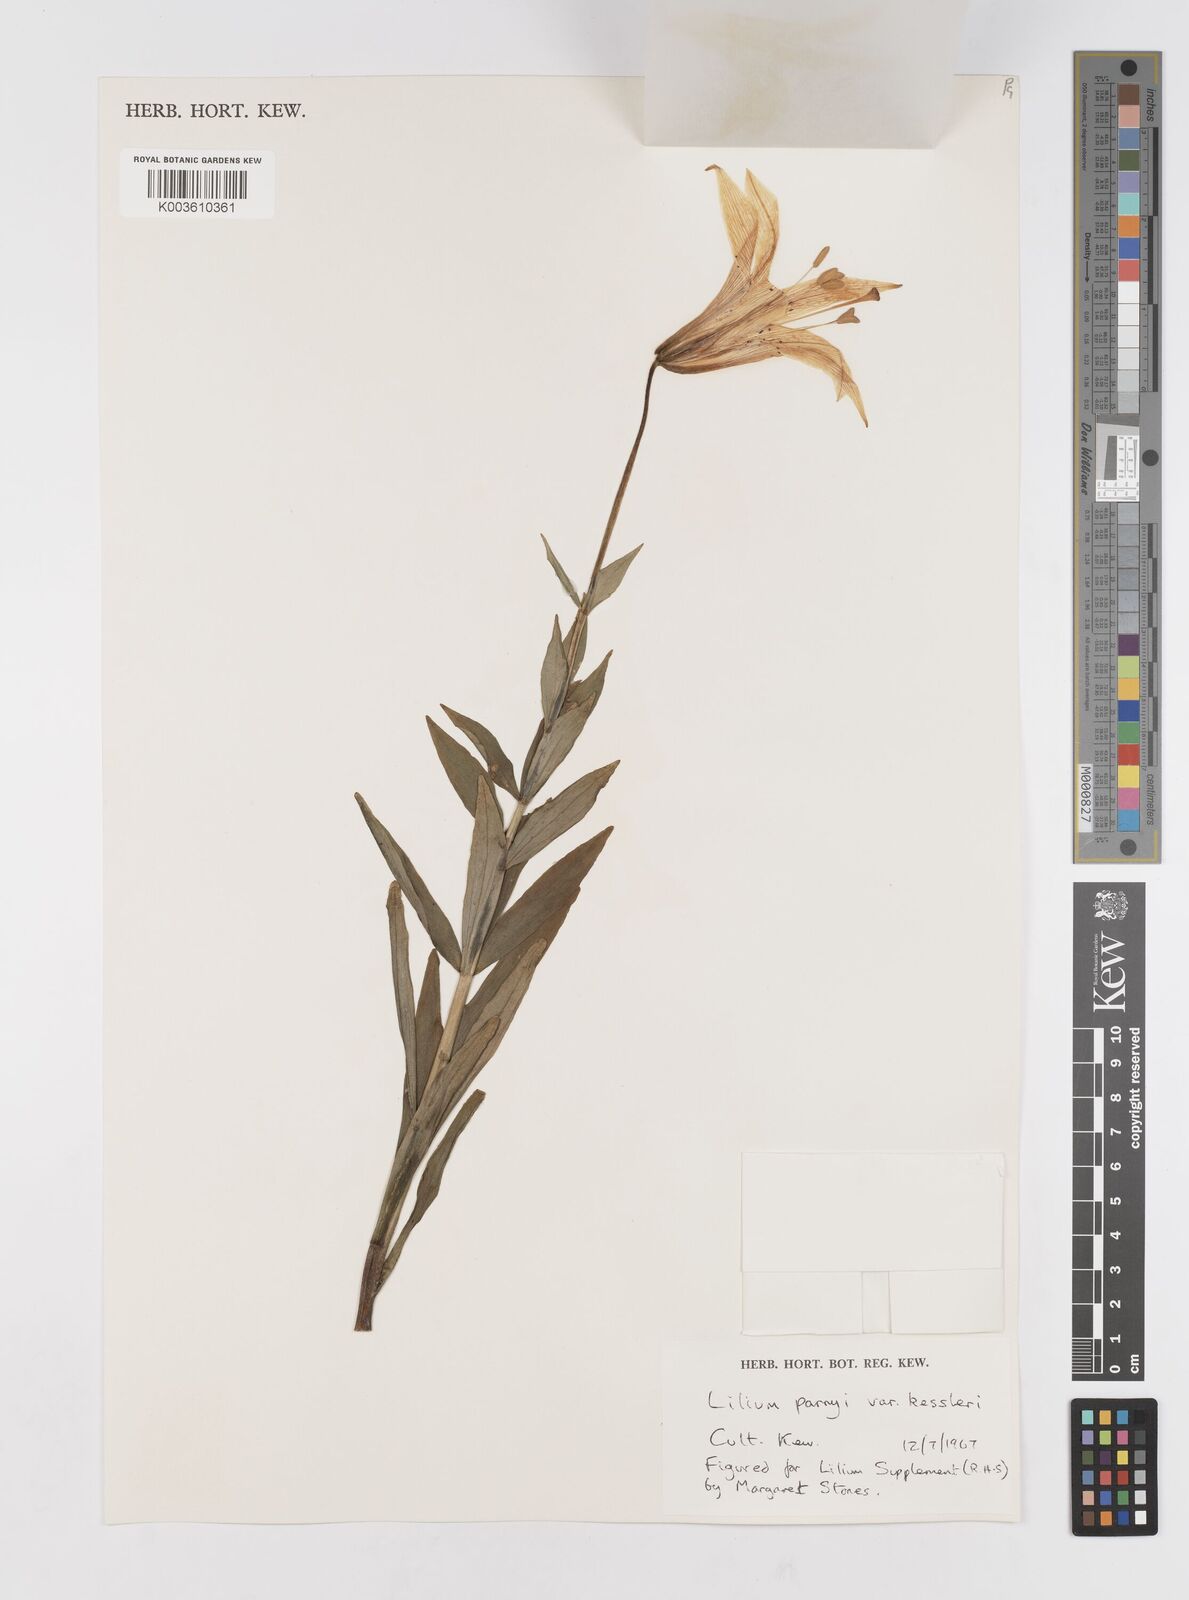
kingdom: Plantae
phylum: Tracheophyta
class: Liliopsida
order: Liliales
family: Liliaceae
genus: Lilium
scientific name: Lilium parryi
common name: Lemon lily
